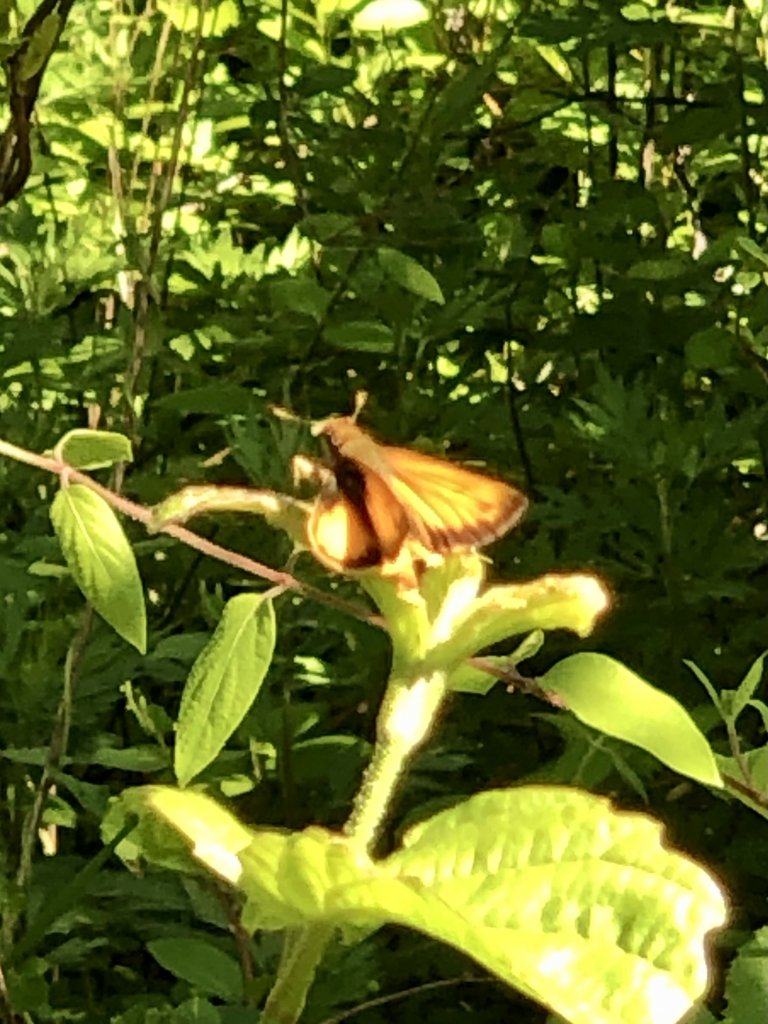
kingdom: Animalia
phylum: Arthropoda
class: Insecta
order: Lepidoptera
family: Hesperiidae
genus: Lon
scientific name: Lon zabulon
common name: Zabulon Skipper
